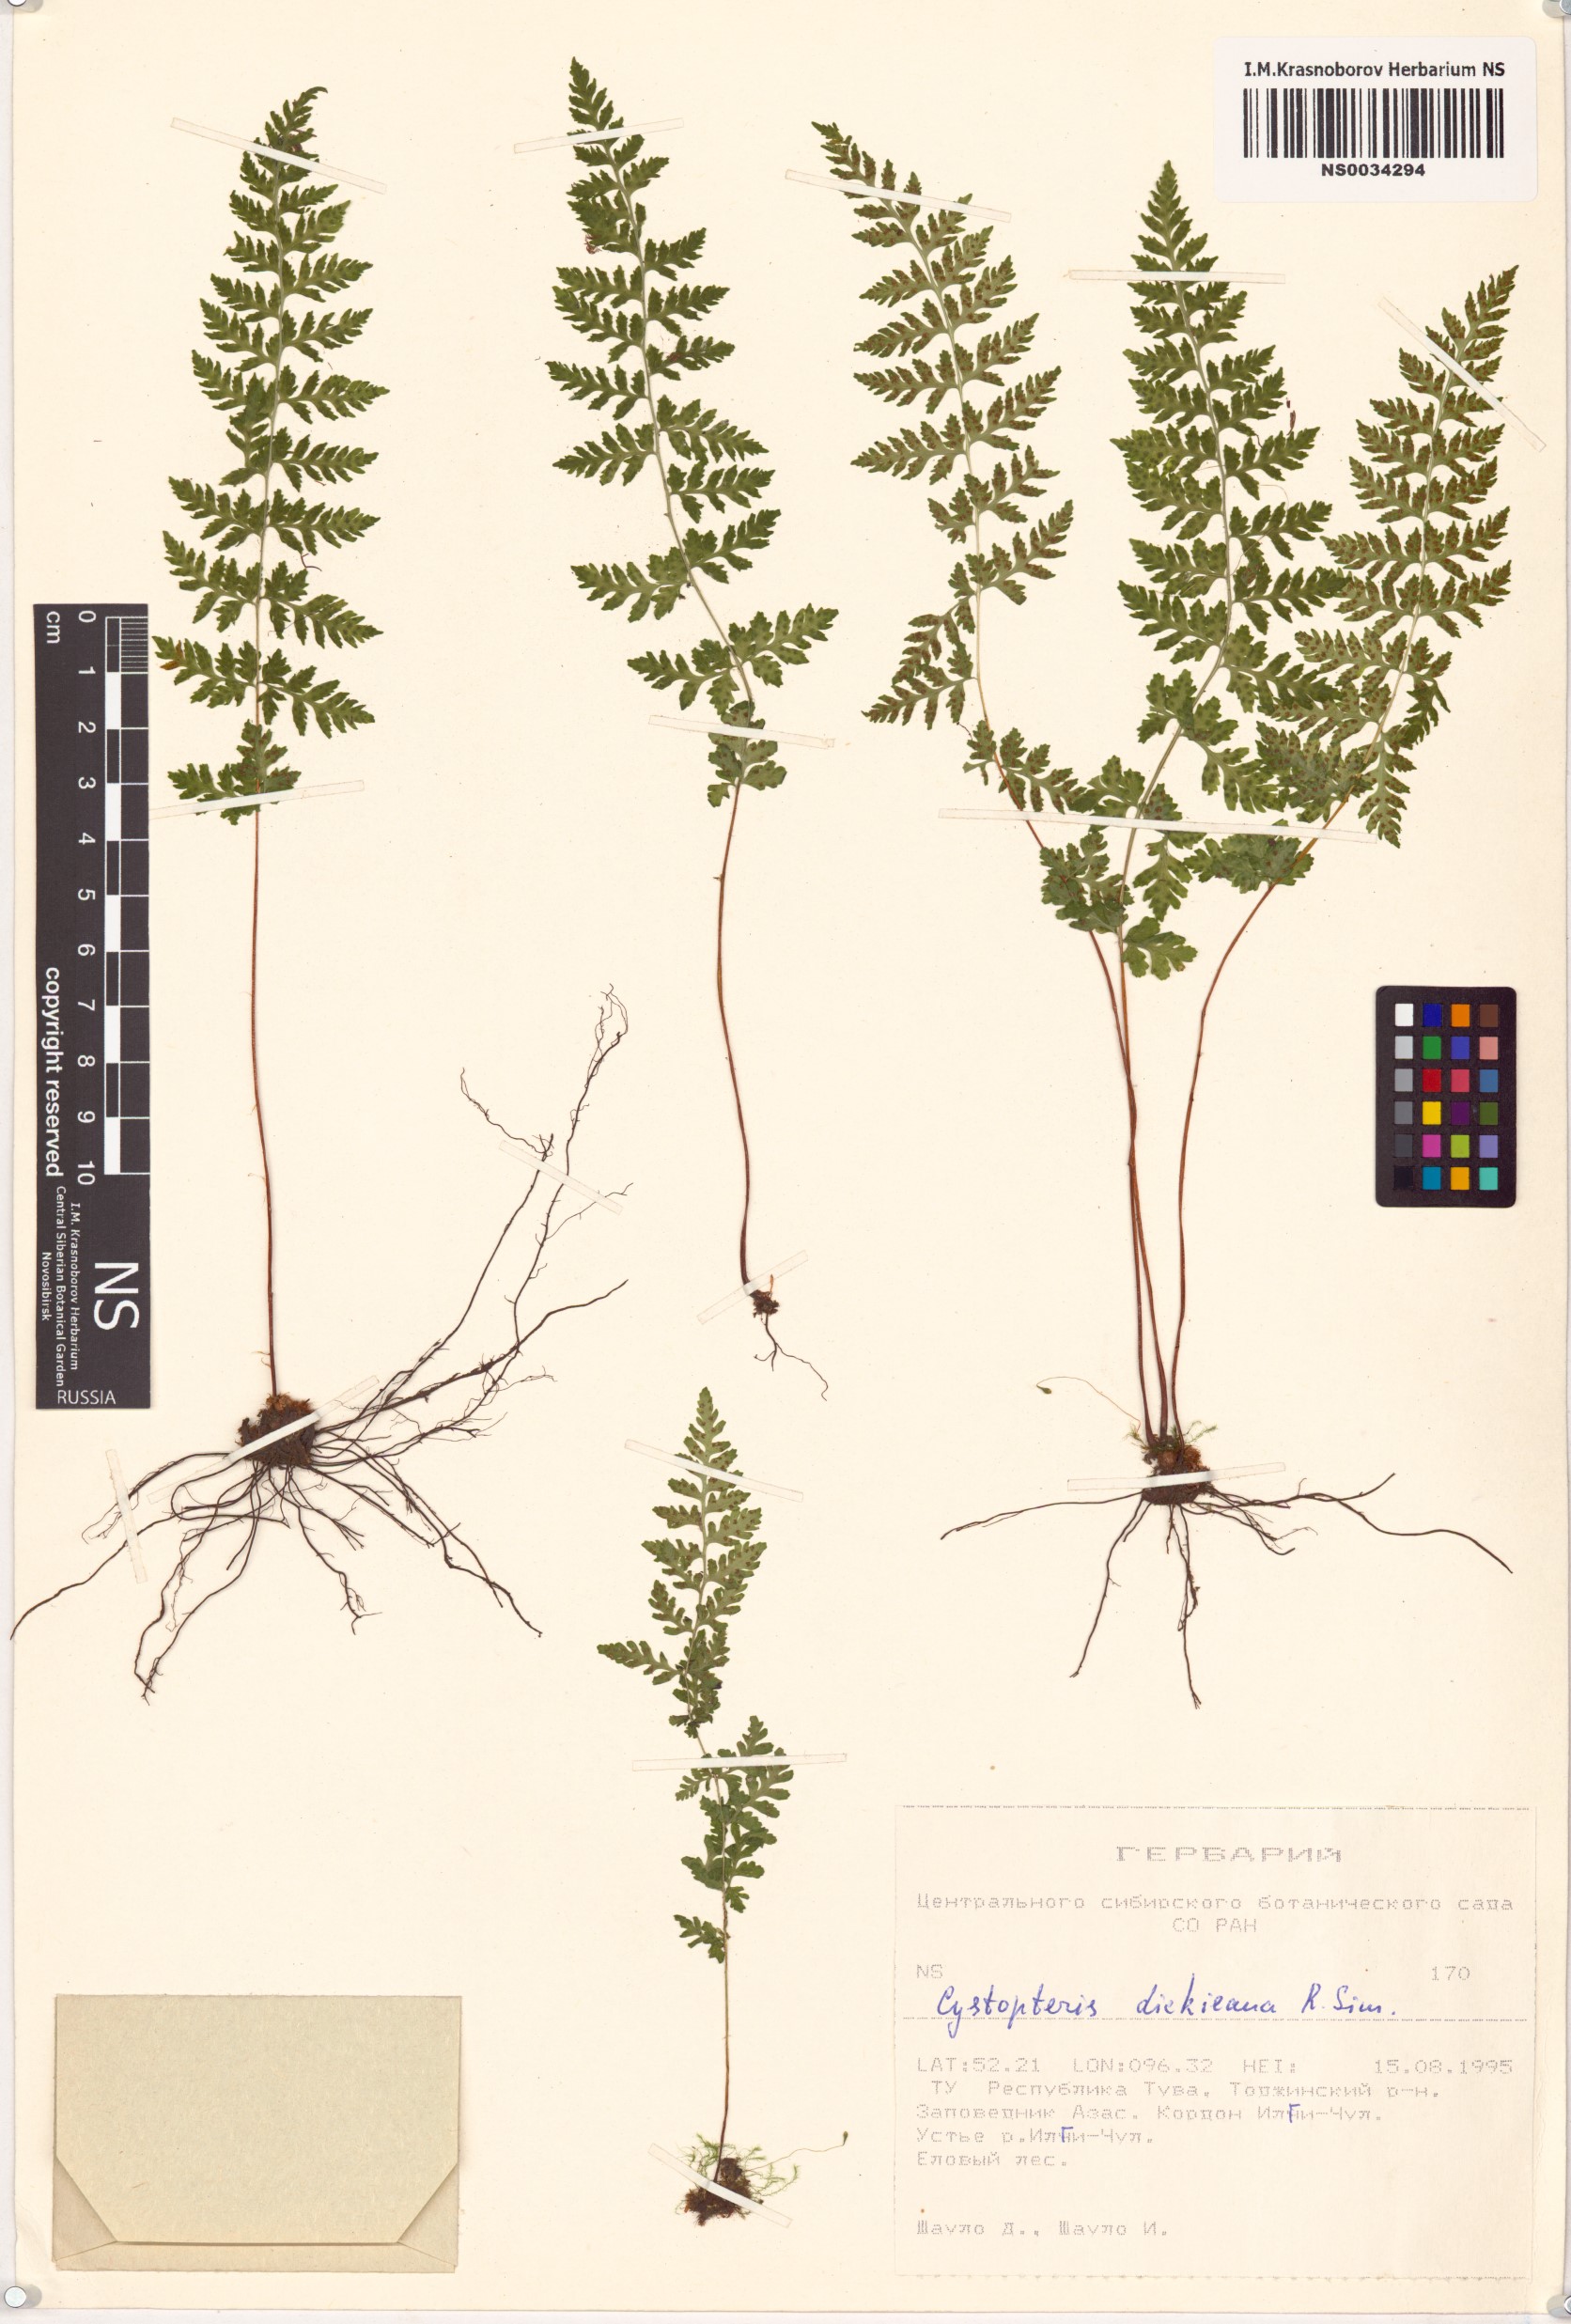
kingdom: Plantae
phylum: Tracheophyta
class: Polypodiopsida
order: Polypodiales
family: Cystopteridaceae
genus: Cystopteris
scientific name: Cystopteris dickieana
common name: Dickie's bladder-fern
